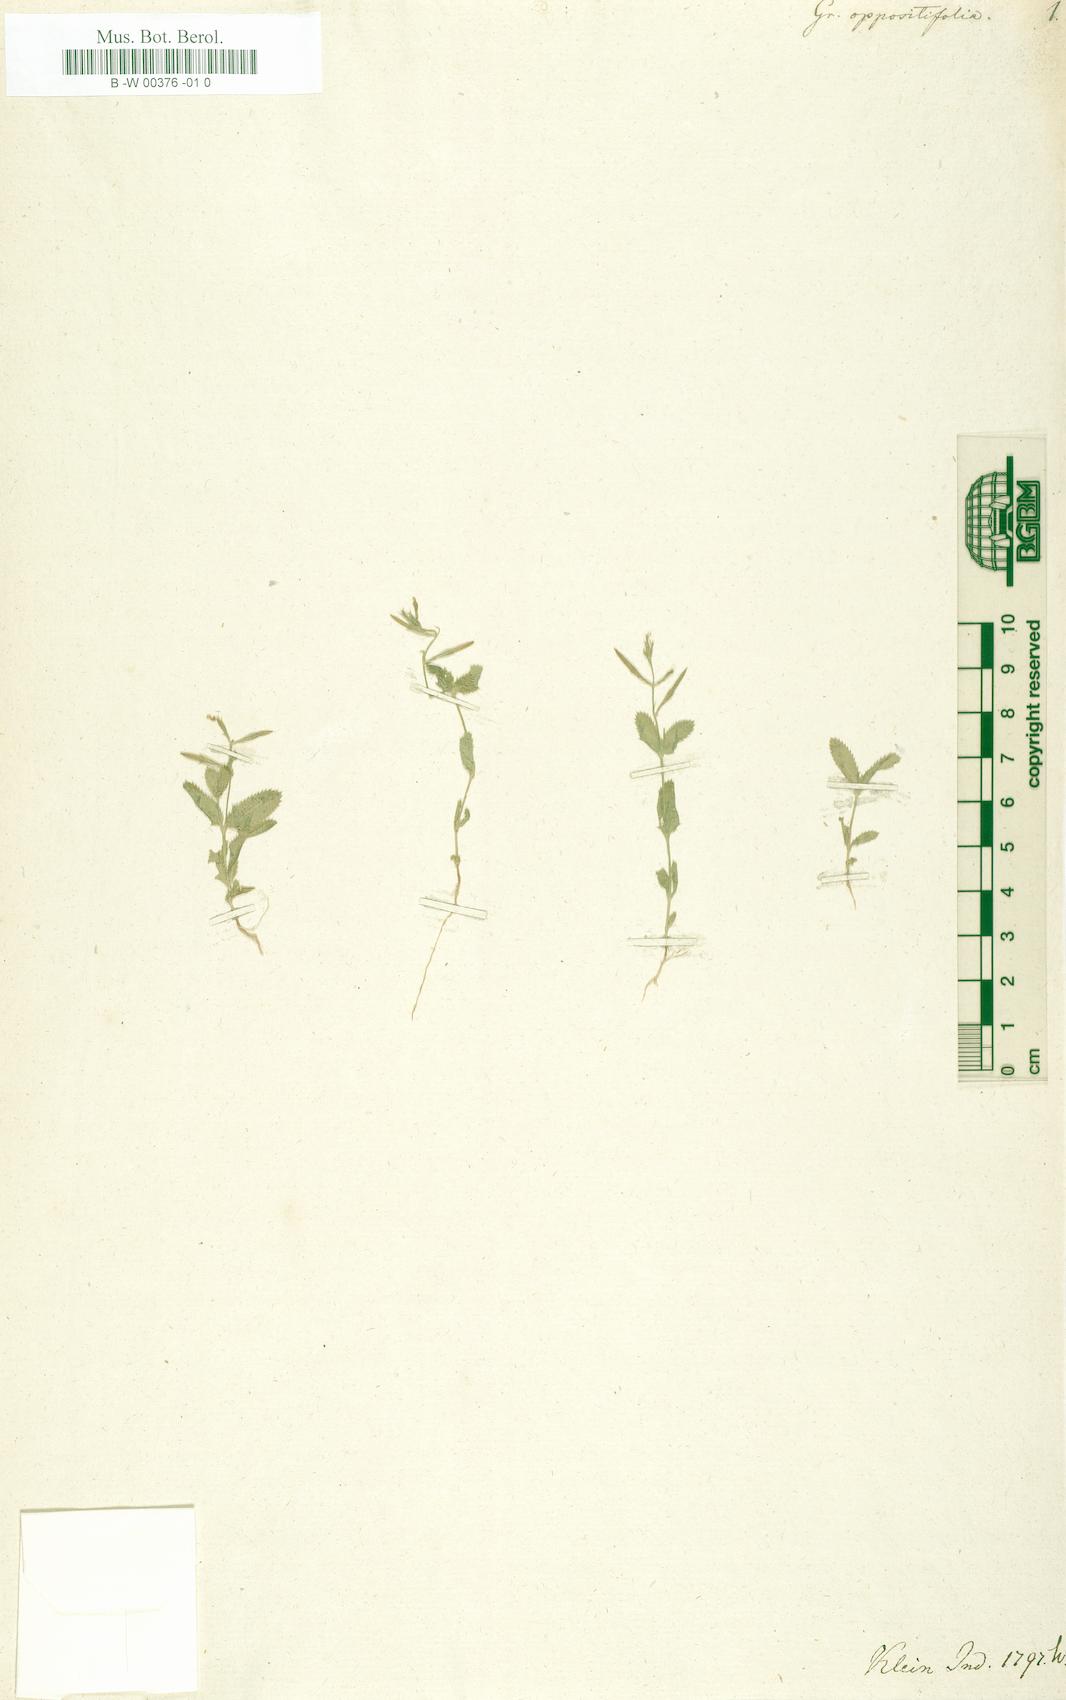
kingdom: Plantae
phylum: Tracheophyta
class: Magnoliopsida
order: Lamiales
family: Linderniaceae
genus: Bonnaya
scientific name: Bonnaya
